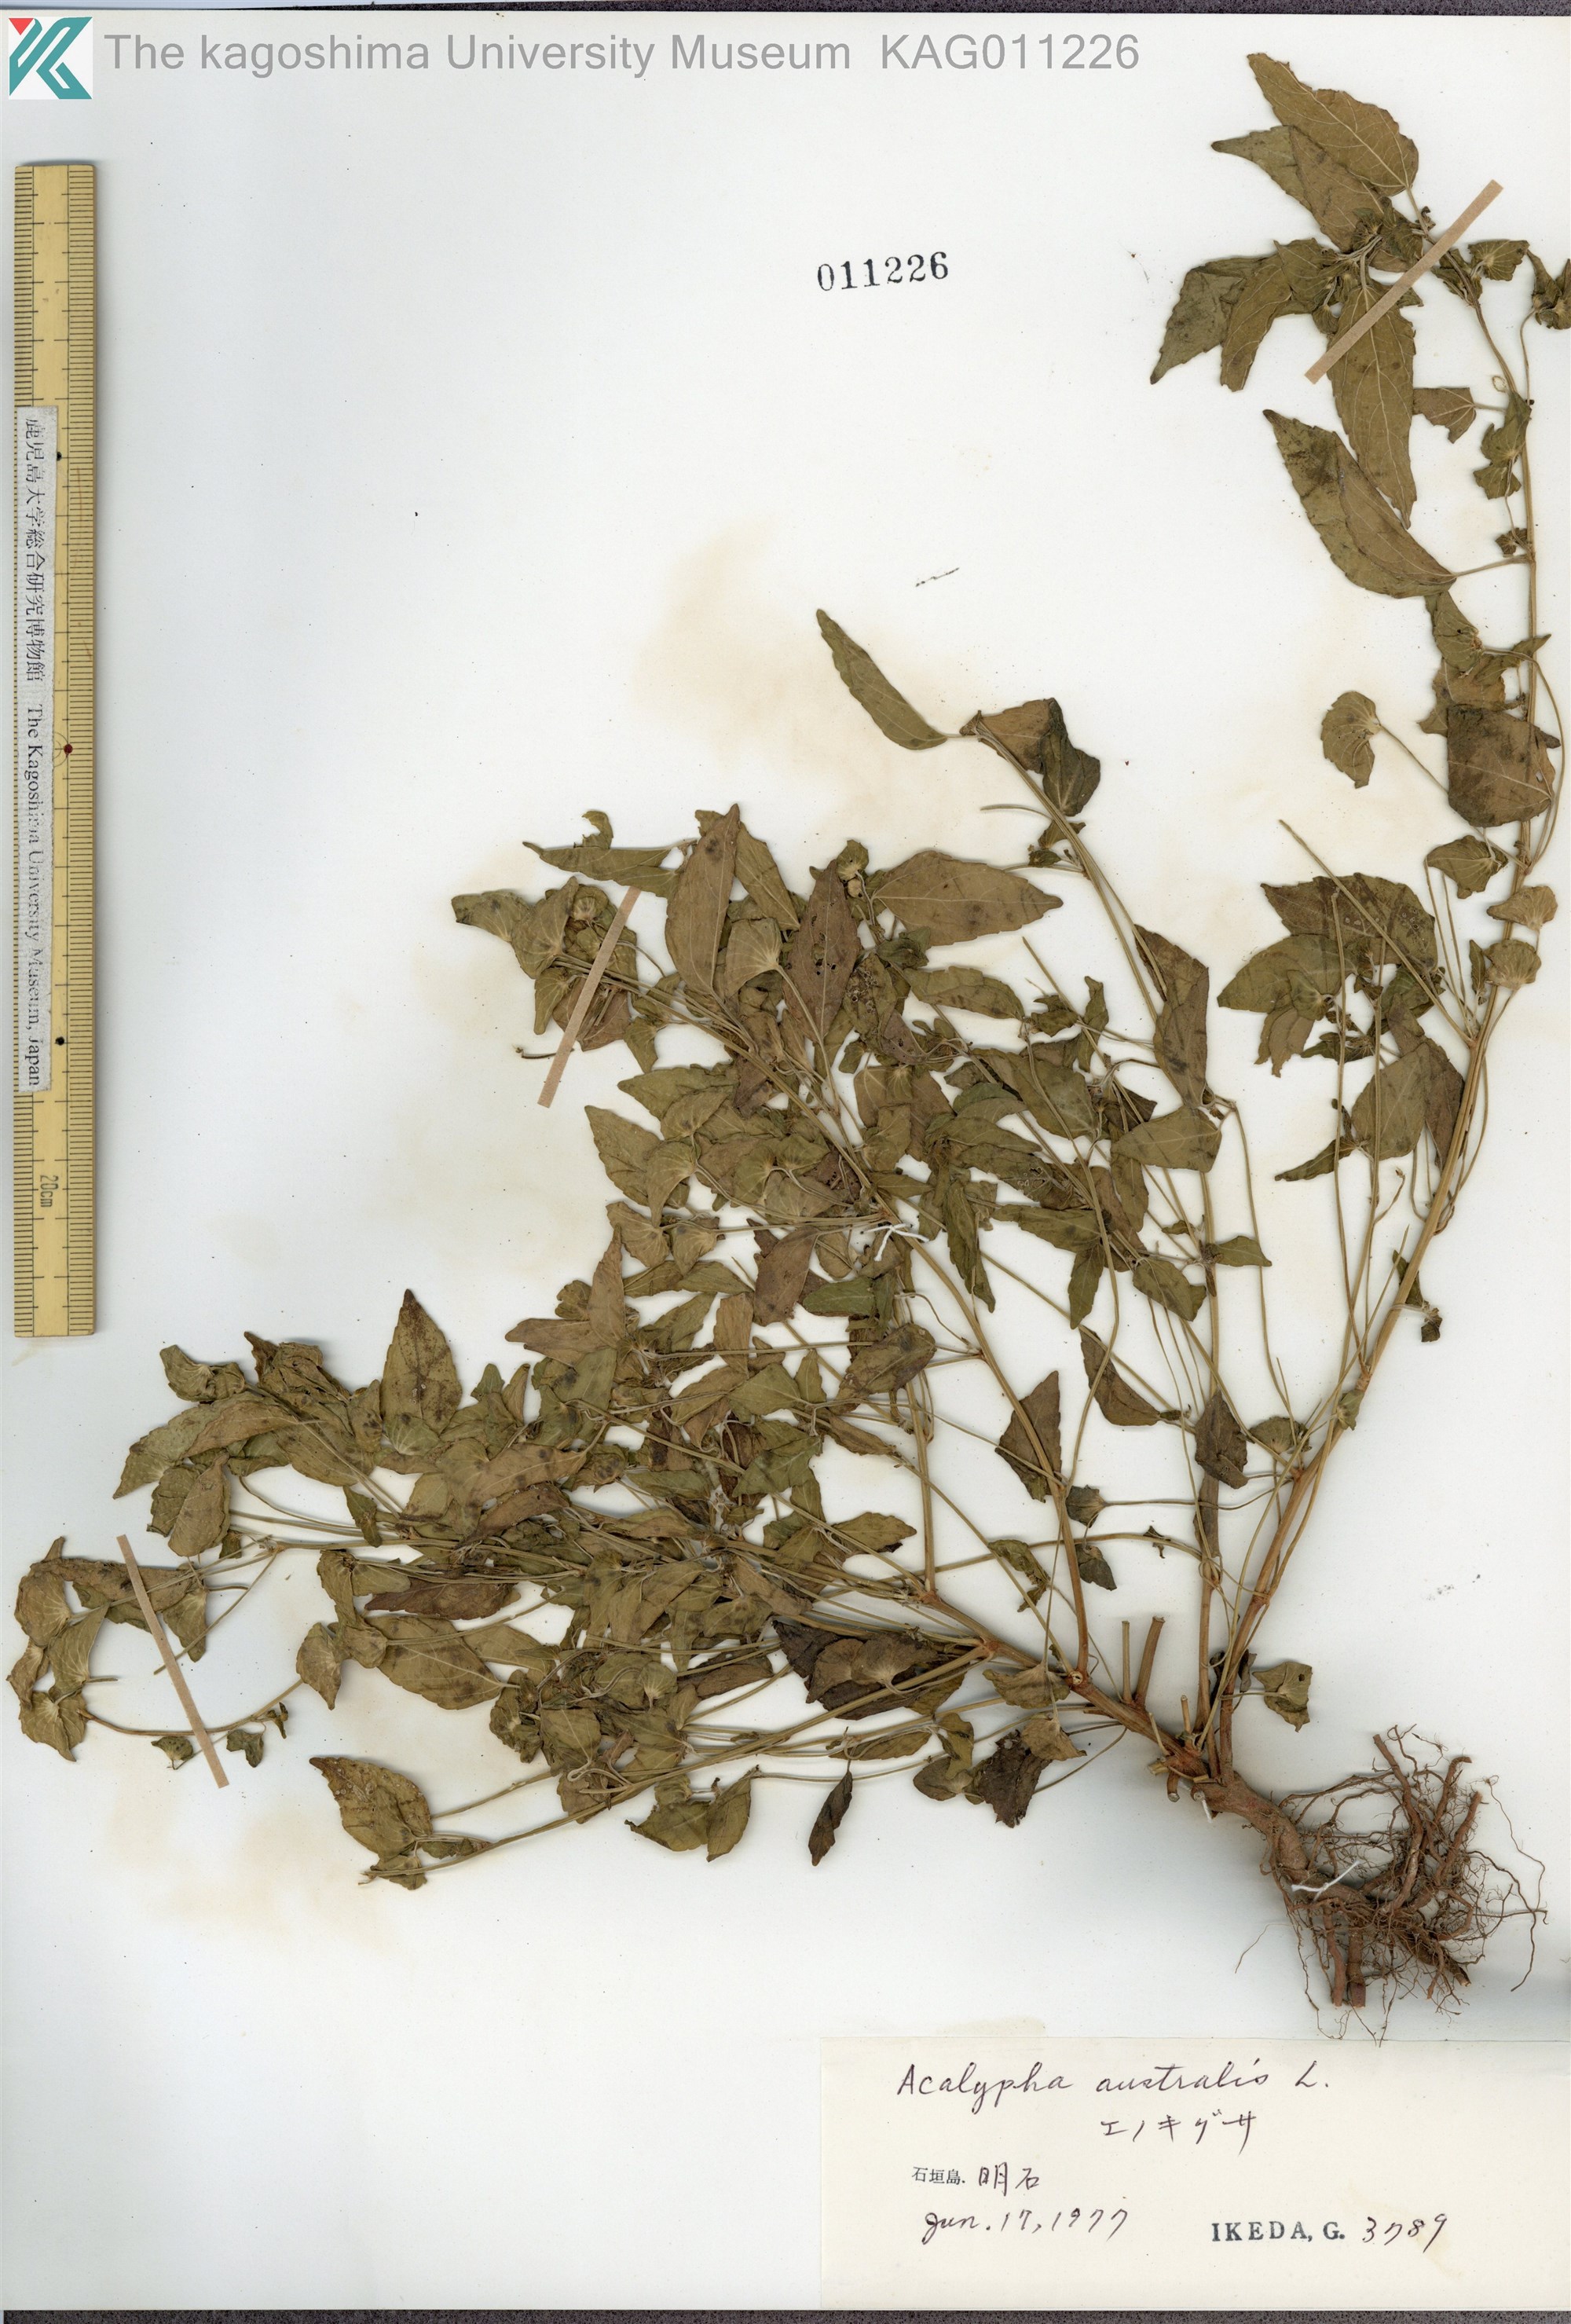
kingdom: Plantae
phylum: Tracheophyta
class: Magnoliopsida
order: Malpighiales
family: Euphorbiaceae
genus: Acalypha
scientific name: Acalypha australis
